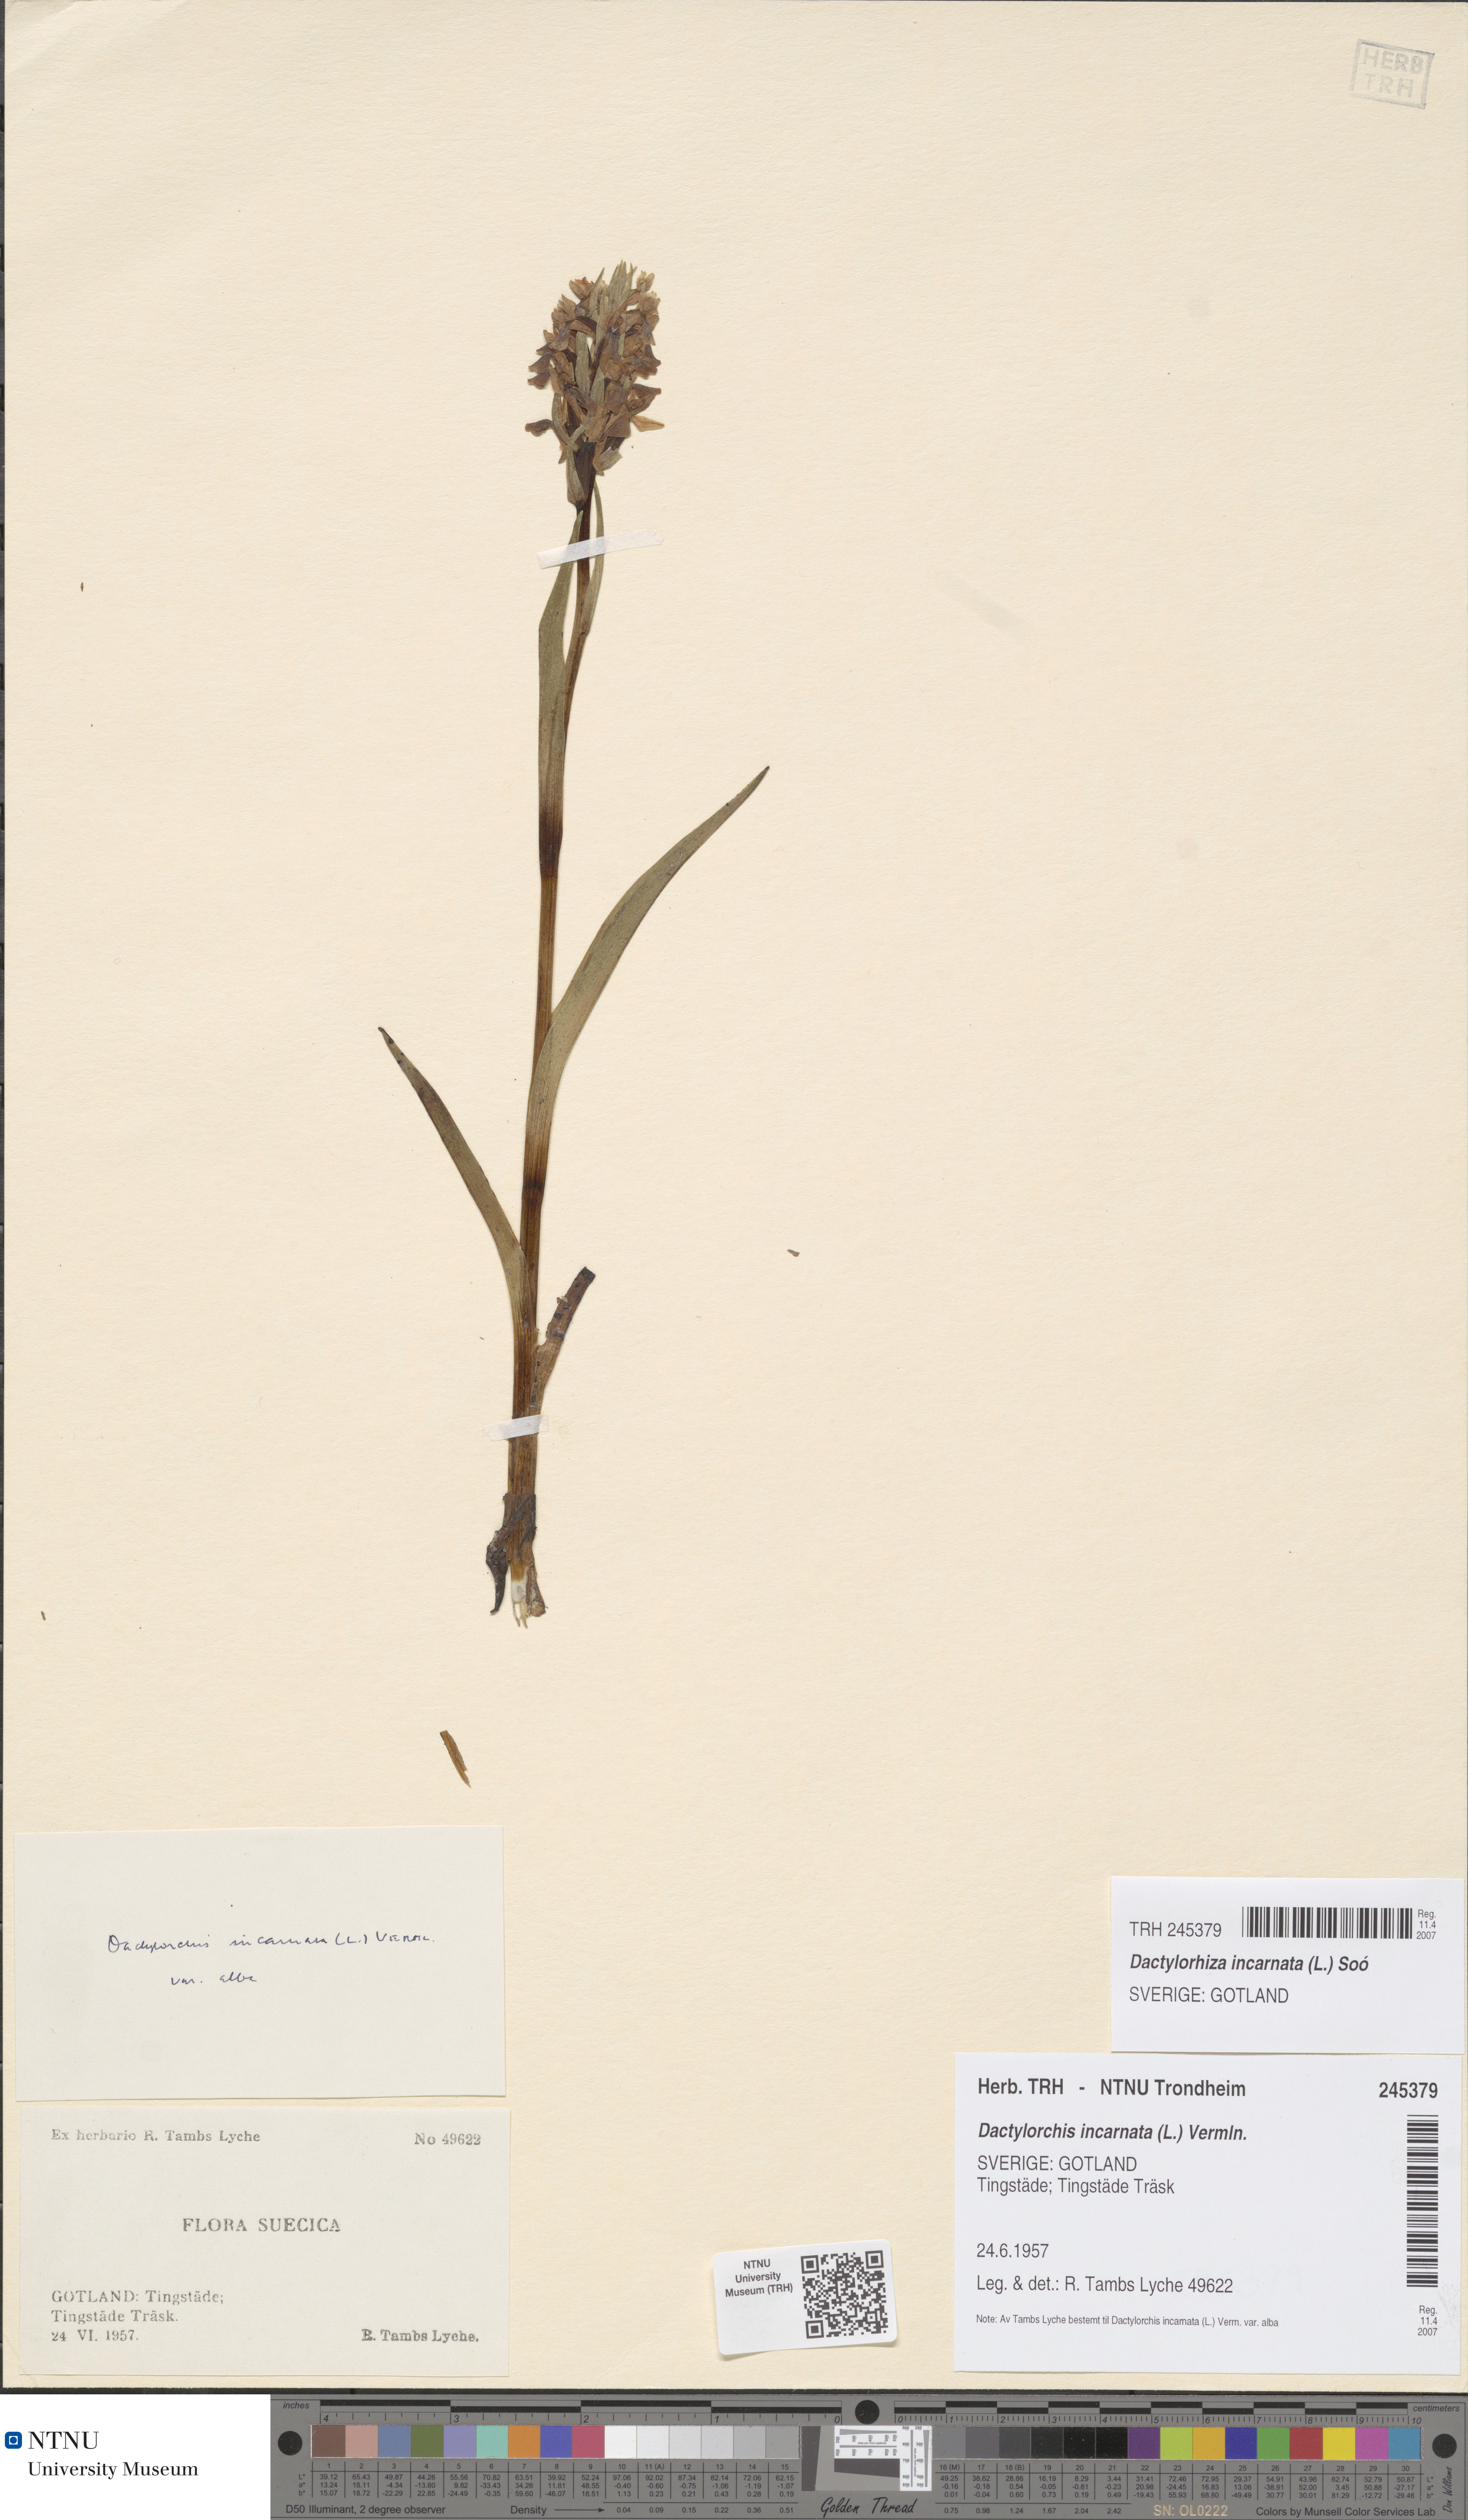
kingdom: Plantae
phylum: Tracheophyta
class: Liliopsida
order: Asparagales
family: Orchidaceae
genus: Dactylorhiza
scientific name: Dactylorhiza incarnata
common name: Early marsh-orchid
